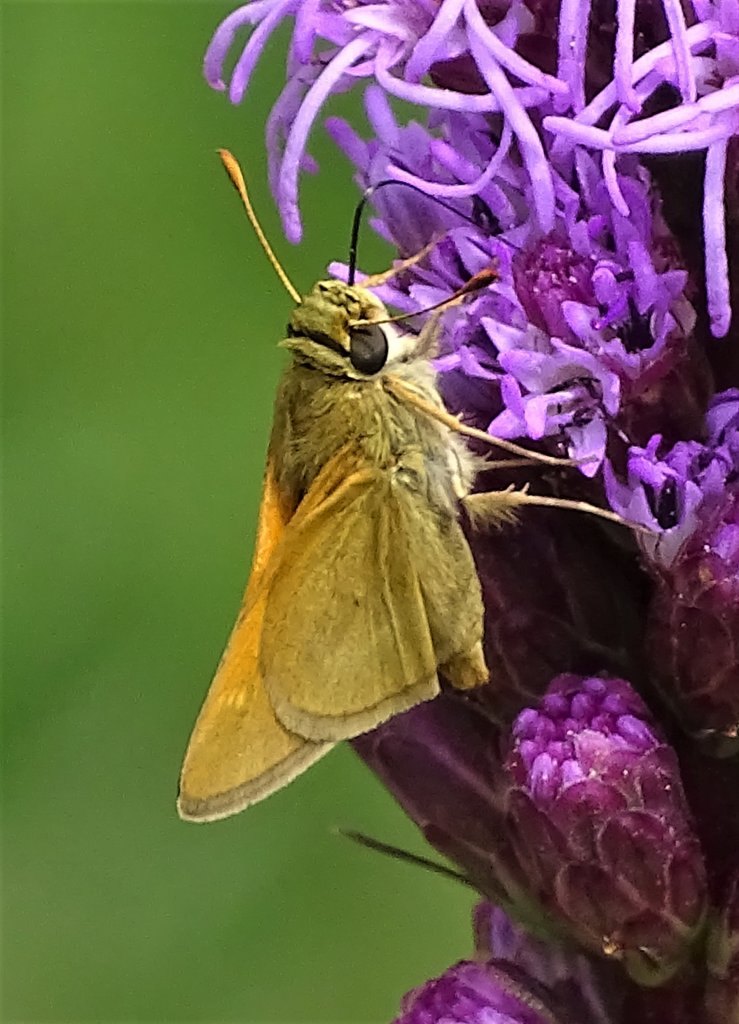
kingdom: Animalia
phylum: Arthropoda
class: Insecta
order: Lepidoptera
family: Hesperiidae
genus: Polites
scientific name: Polites themistocles
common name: Tawny-edged Skipper
